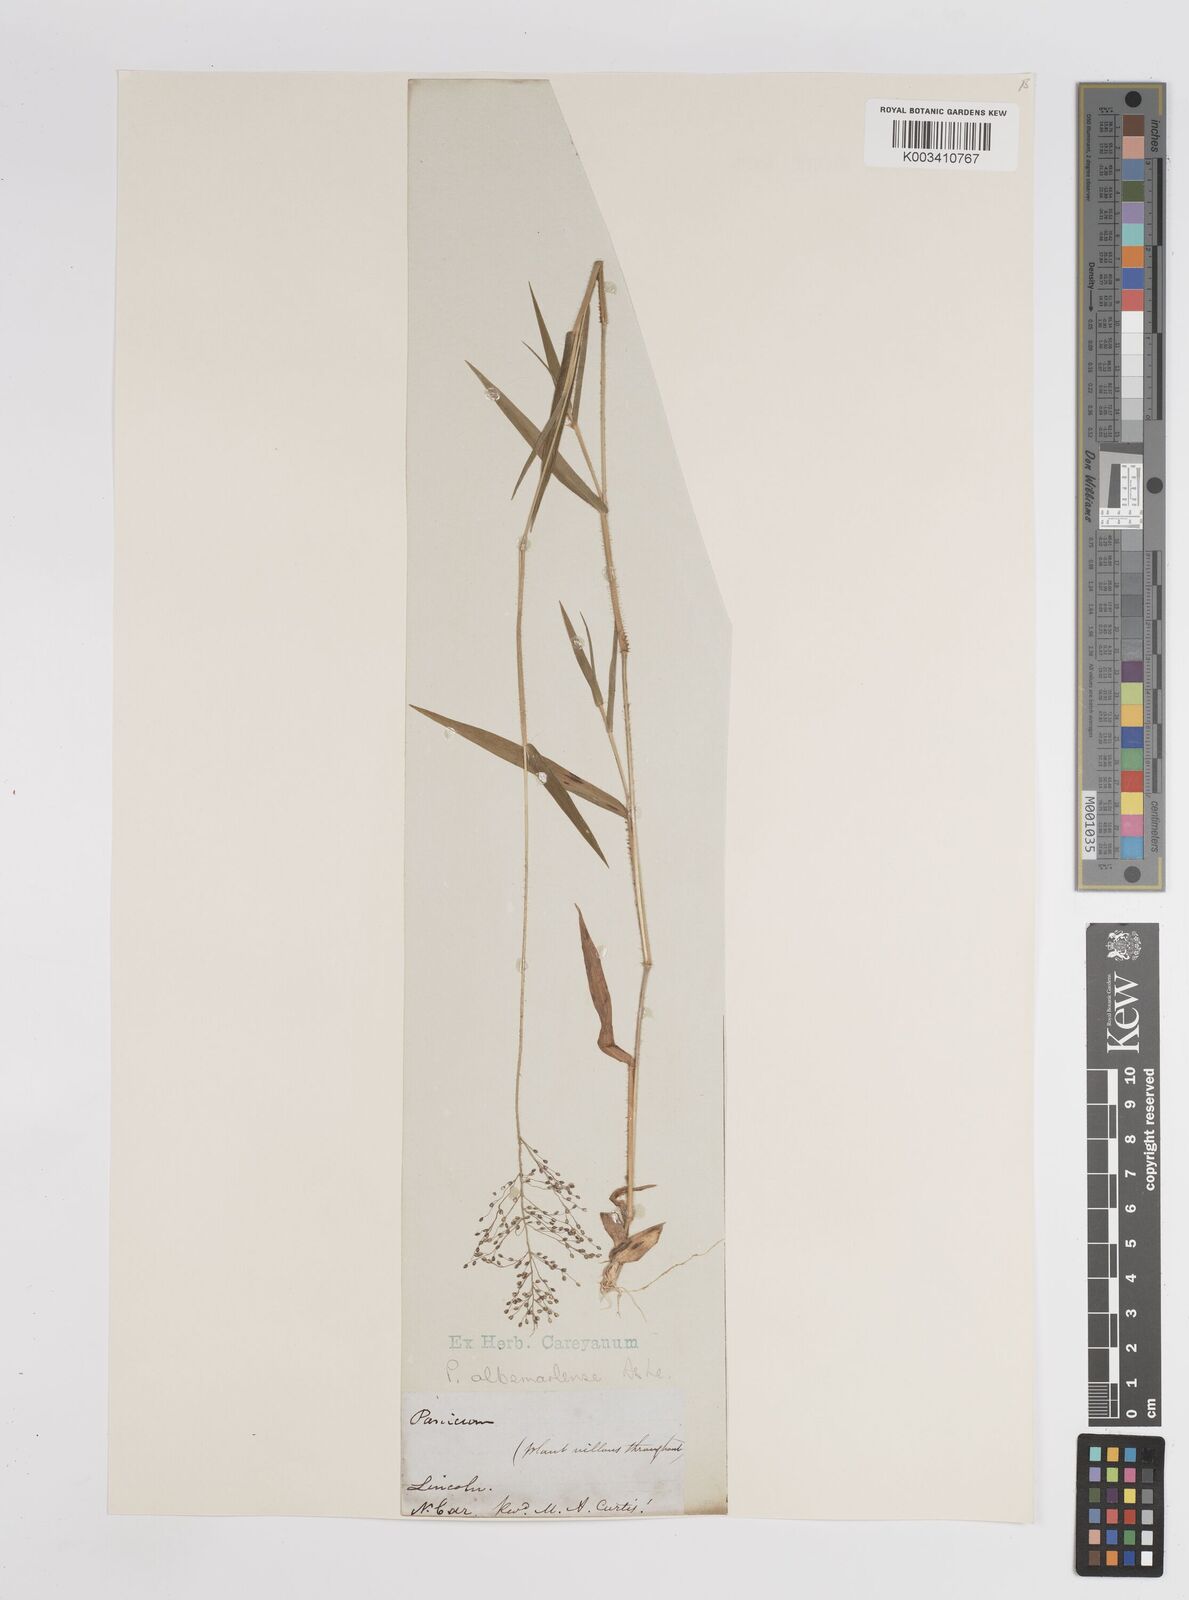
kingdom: Plantae
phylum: Tracheophyta
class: Liliopsida
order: Poales
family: Poaceae
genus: Dichanthelium
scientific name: Dichanthelium meridionale
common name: Mat panicgrass
